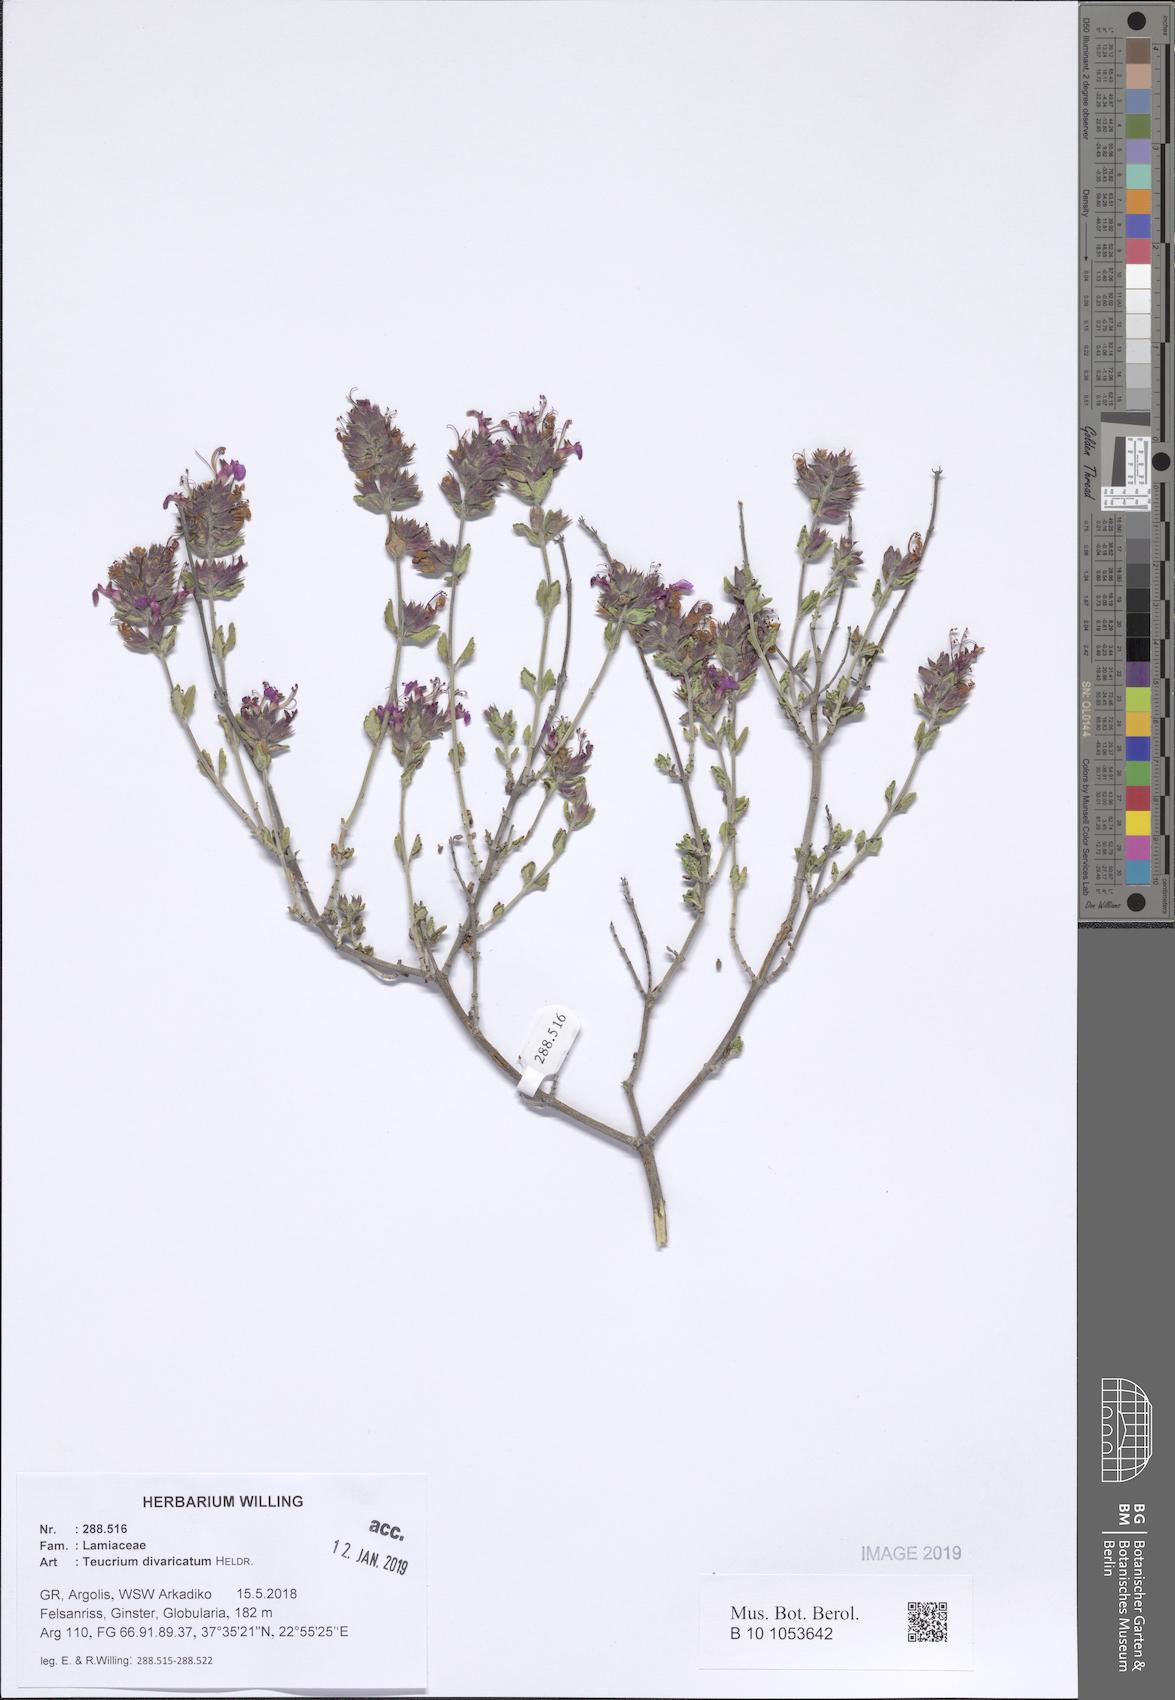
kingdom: Plantae
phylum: Tracheophyta
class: Magnoliopsida
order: Lamiales
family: Lamiaceae
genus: Teucrium
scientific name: Teucrium divaricatum
